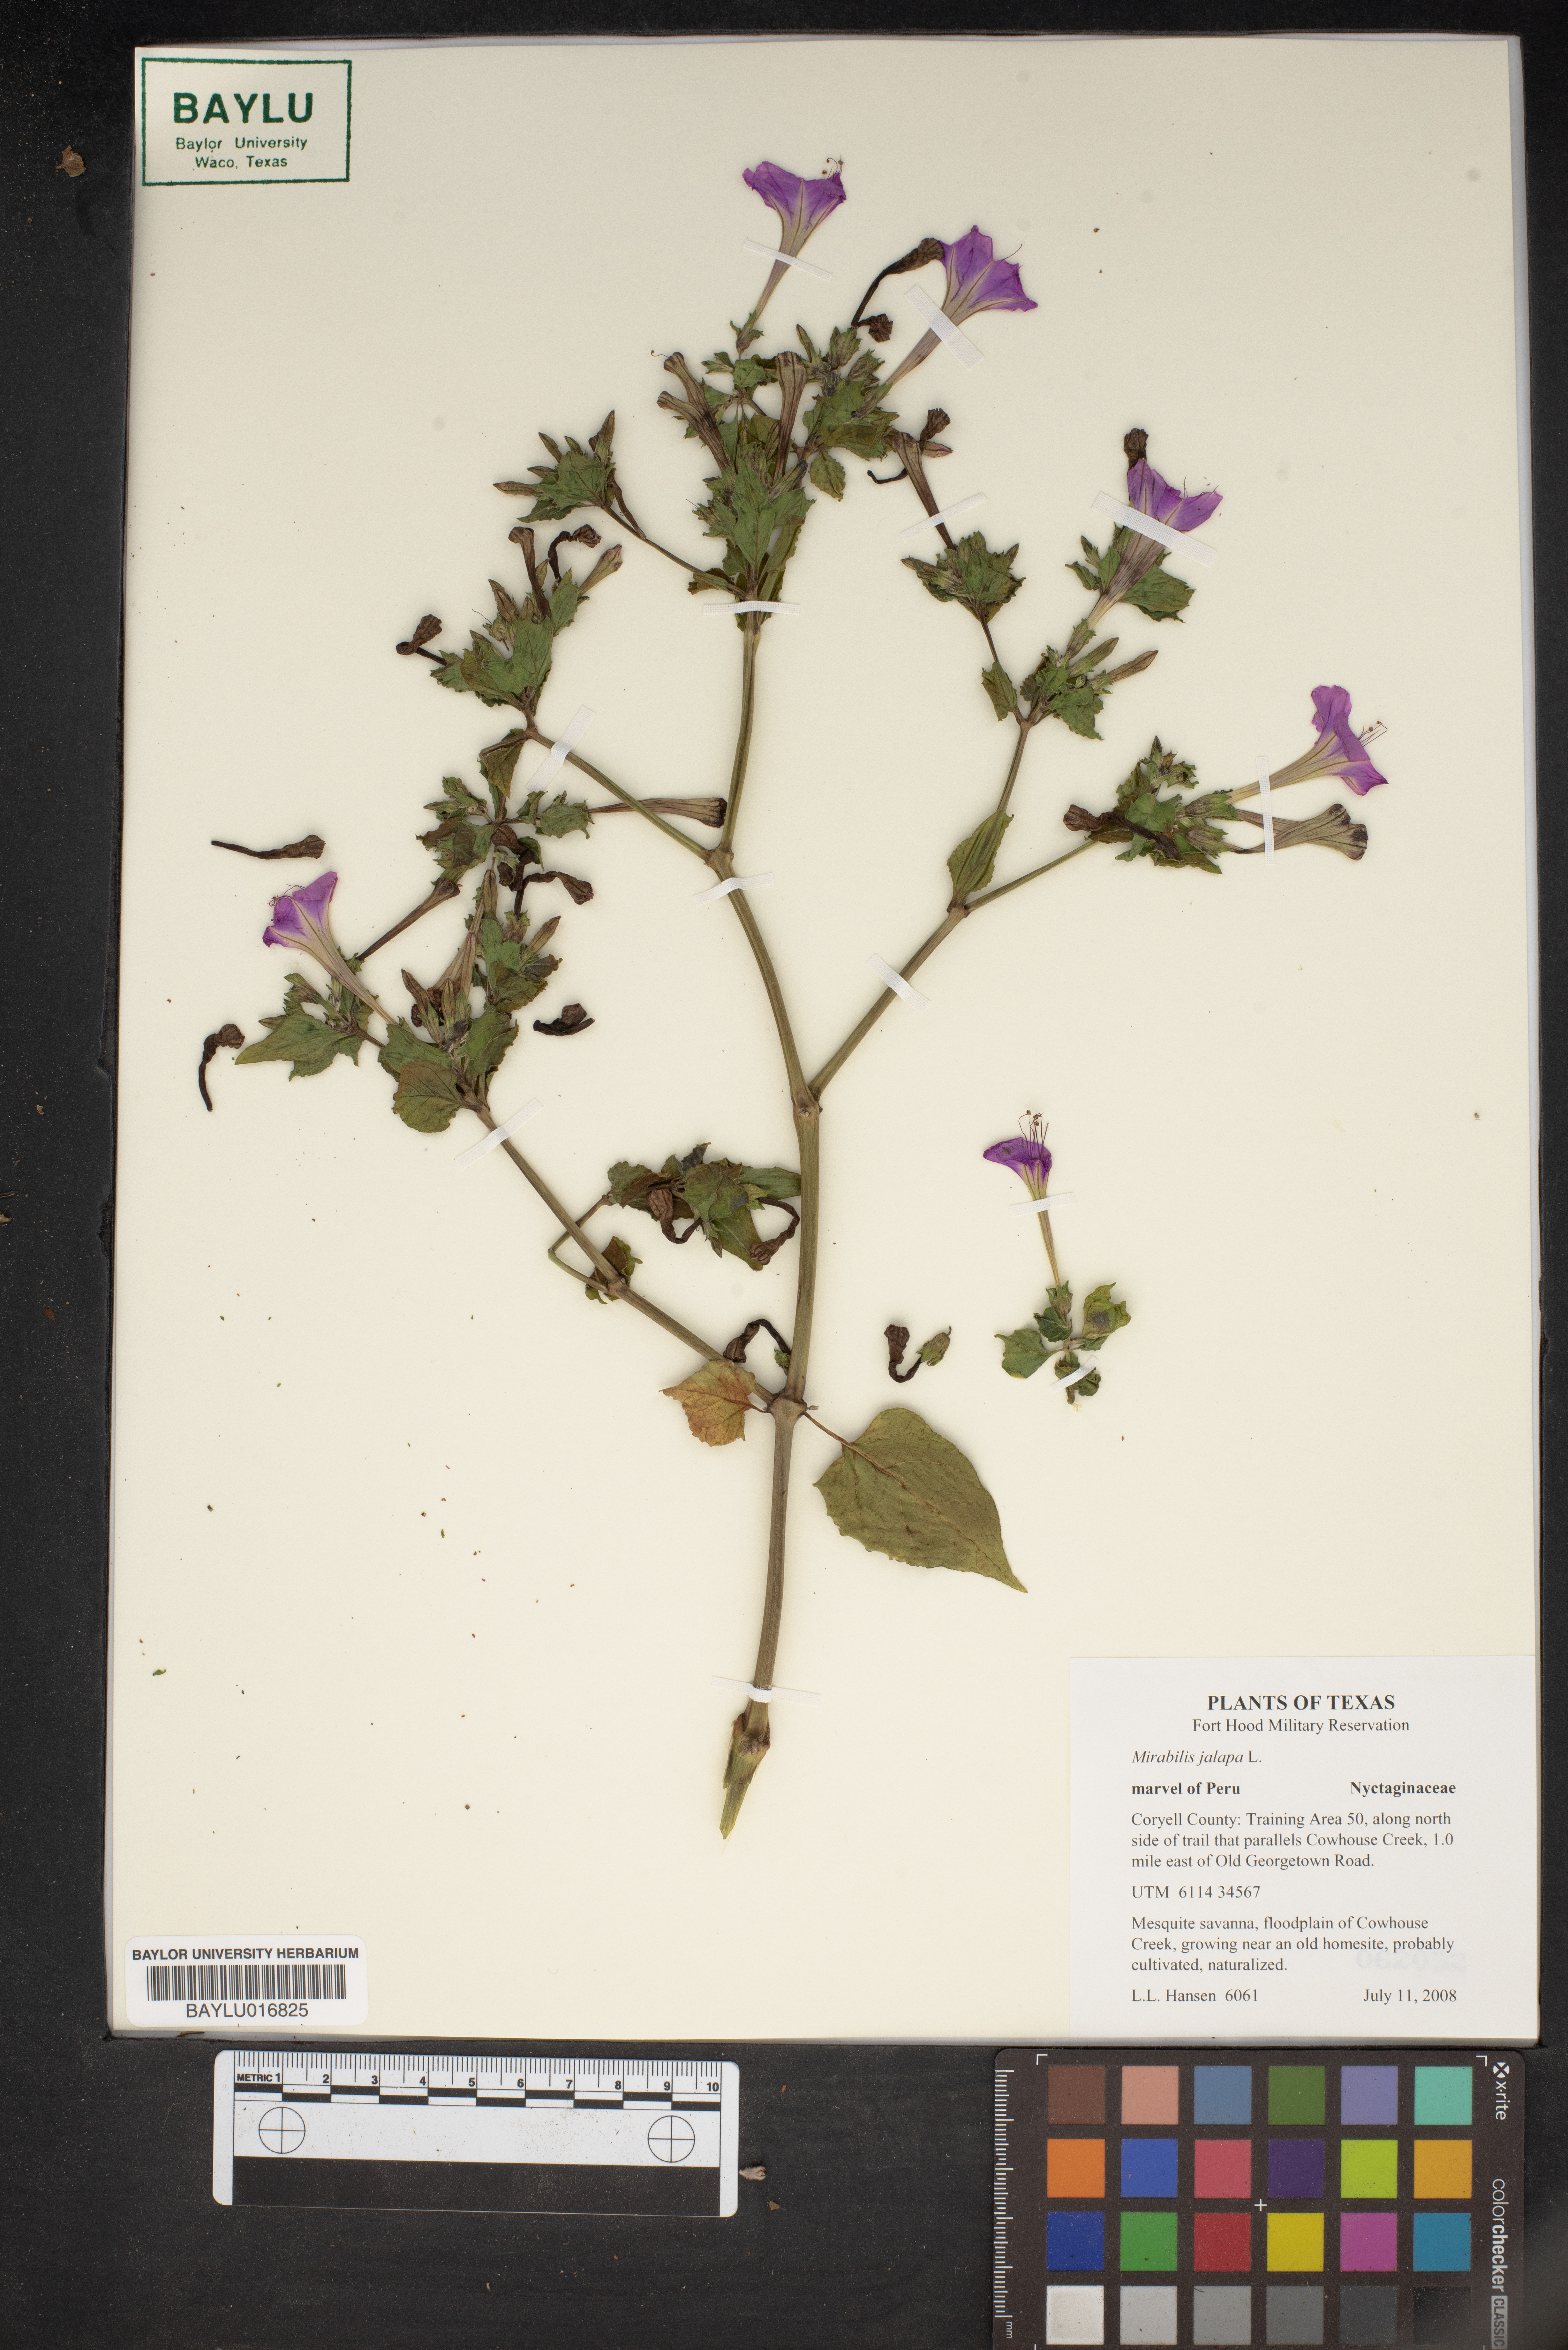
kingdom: Plantae
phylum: Tracheophyta
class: Magnoliopsida
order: Caryophyllales
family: Nyctaginaceae
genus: Mirabilis
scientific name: Mirabilis jalapa
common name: Marvel-of-peru
